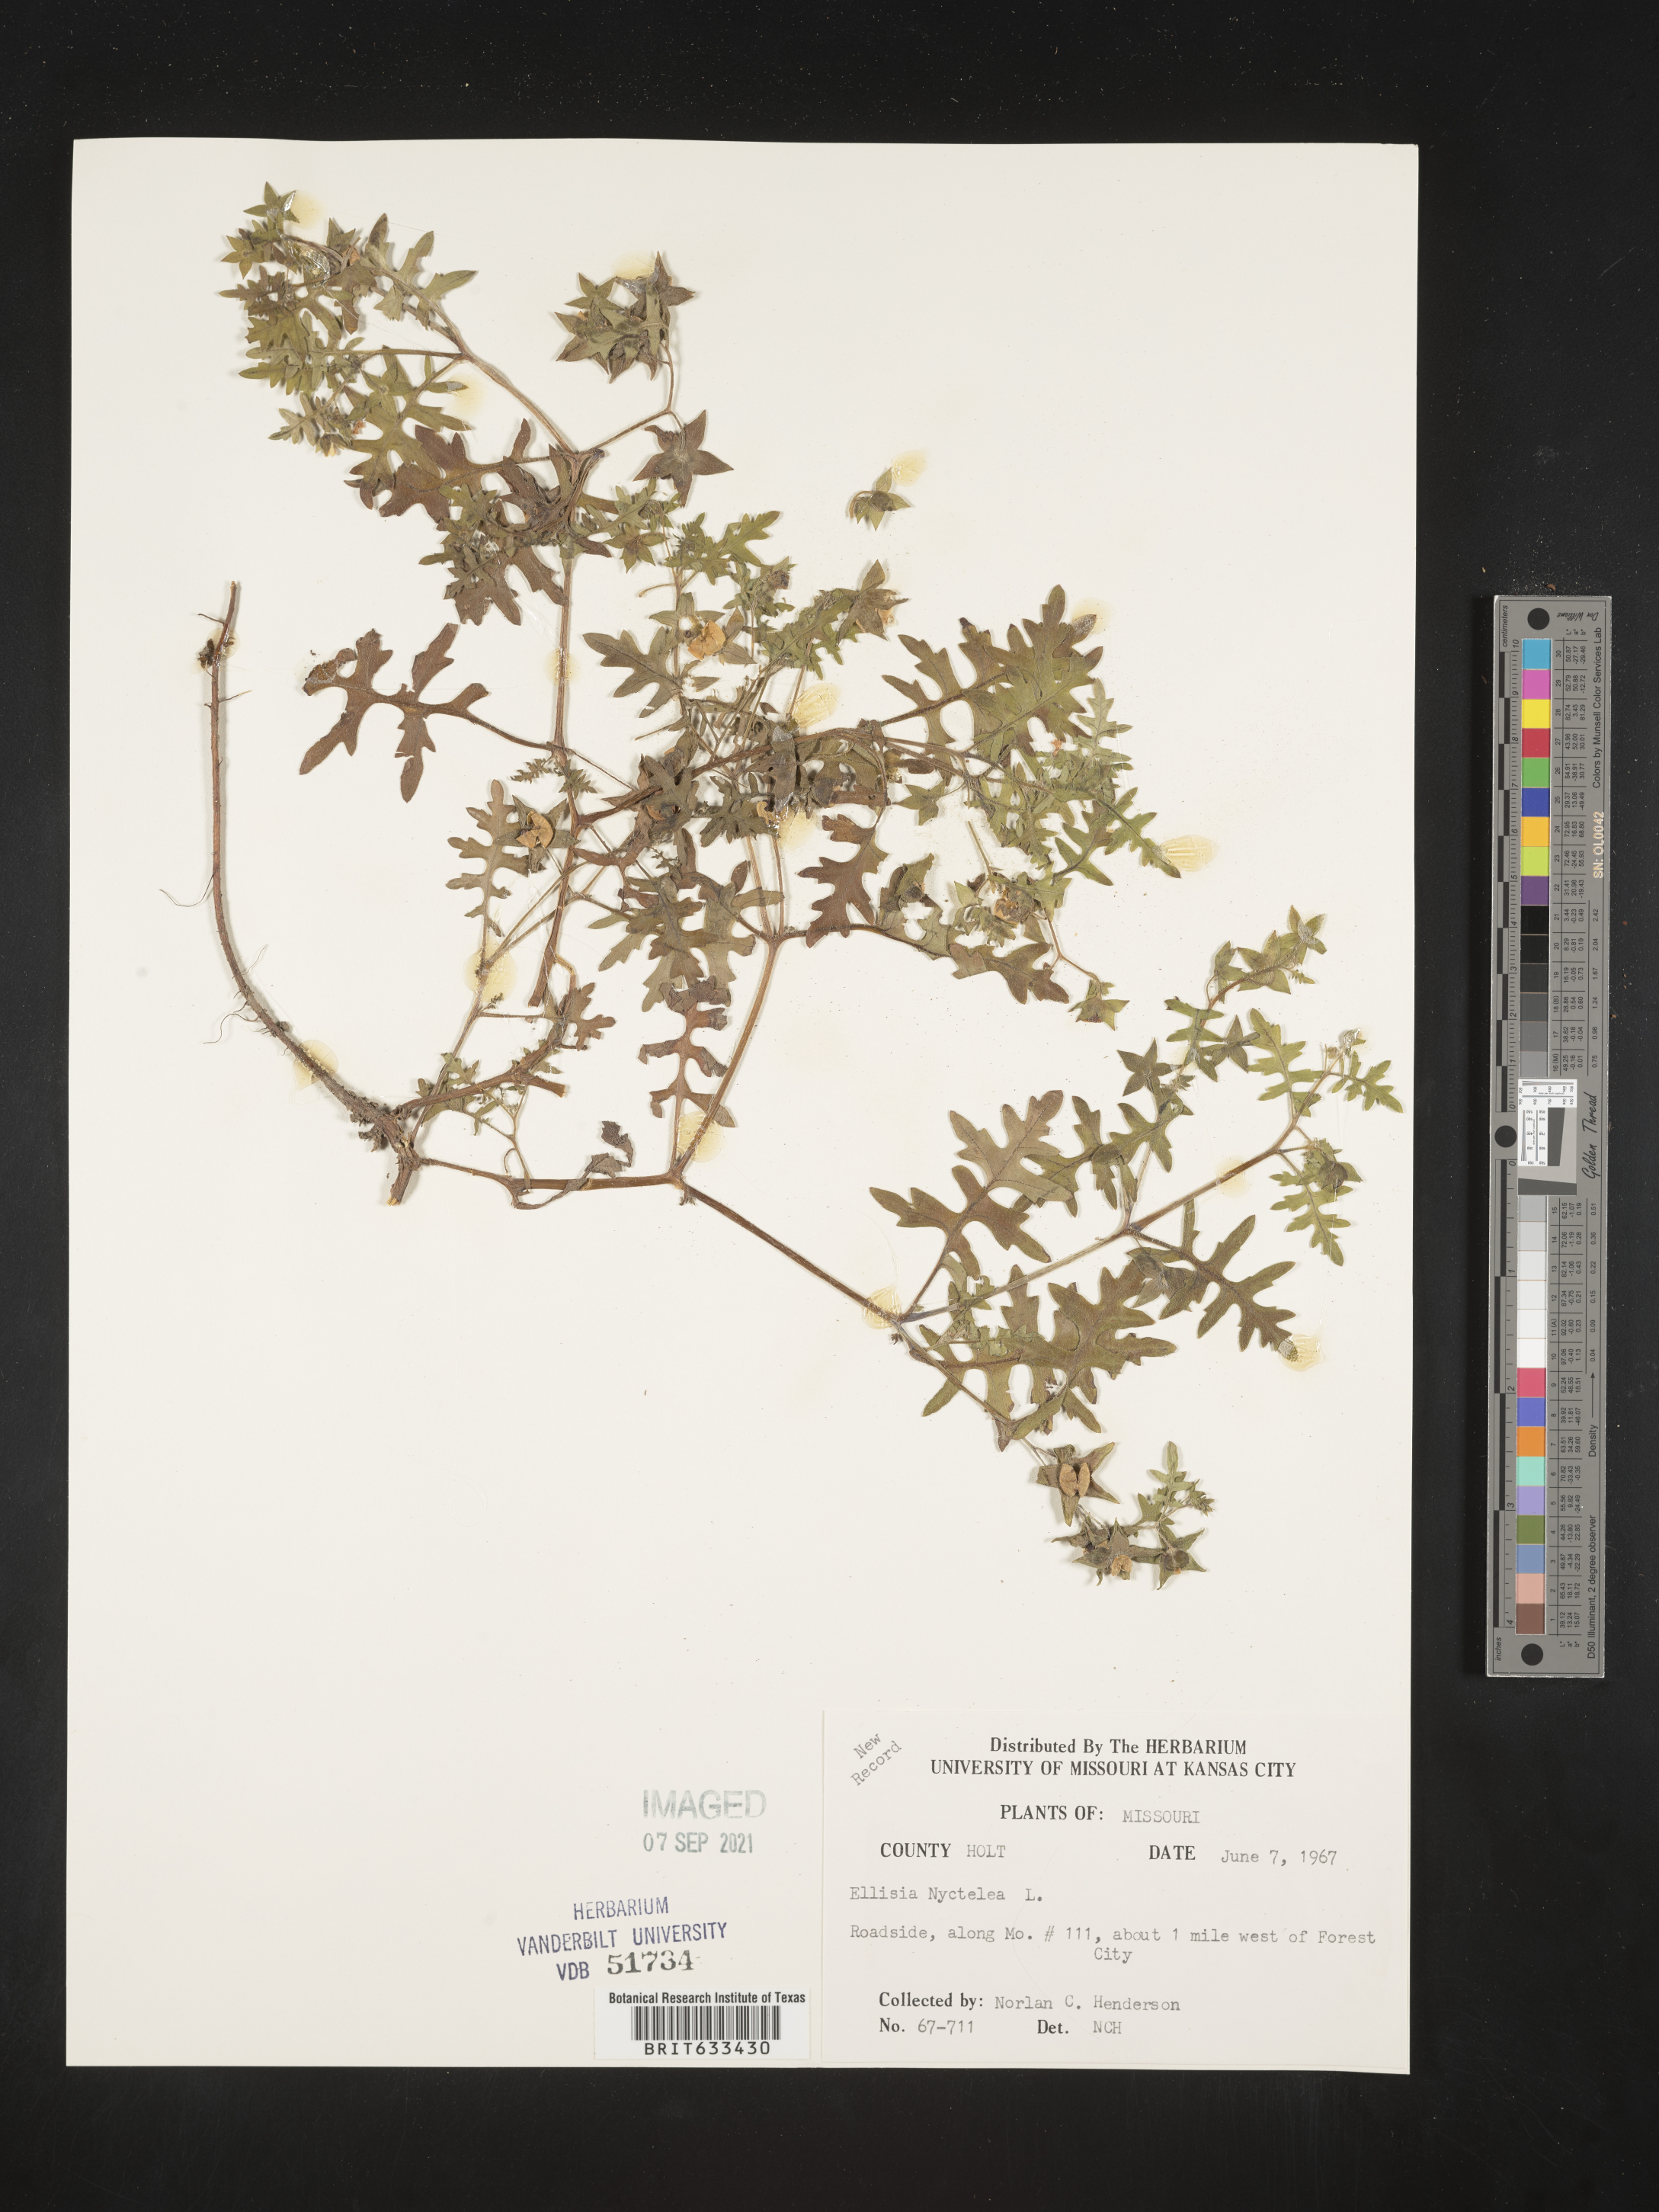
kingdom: Plantae
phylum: Tracheophyta
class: Magnoliopsida
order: Boraginales
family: Hydrophyllaceae
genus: Ellisia
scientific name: Ellisia nyctelea
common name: Aunt lucy
